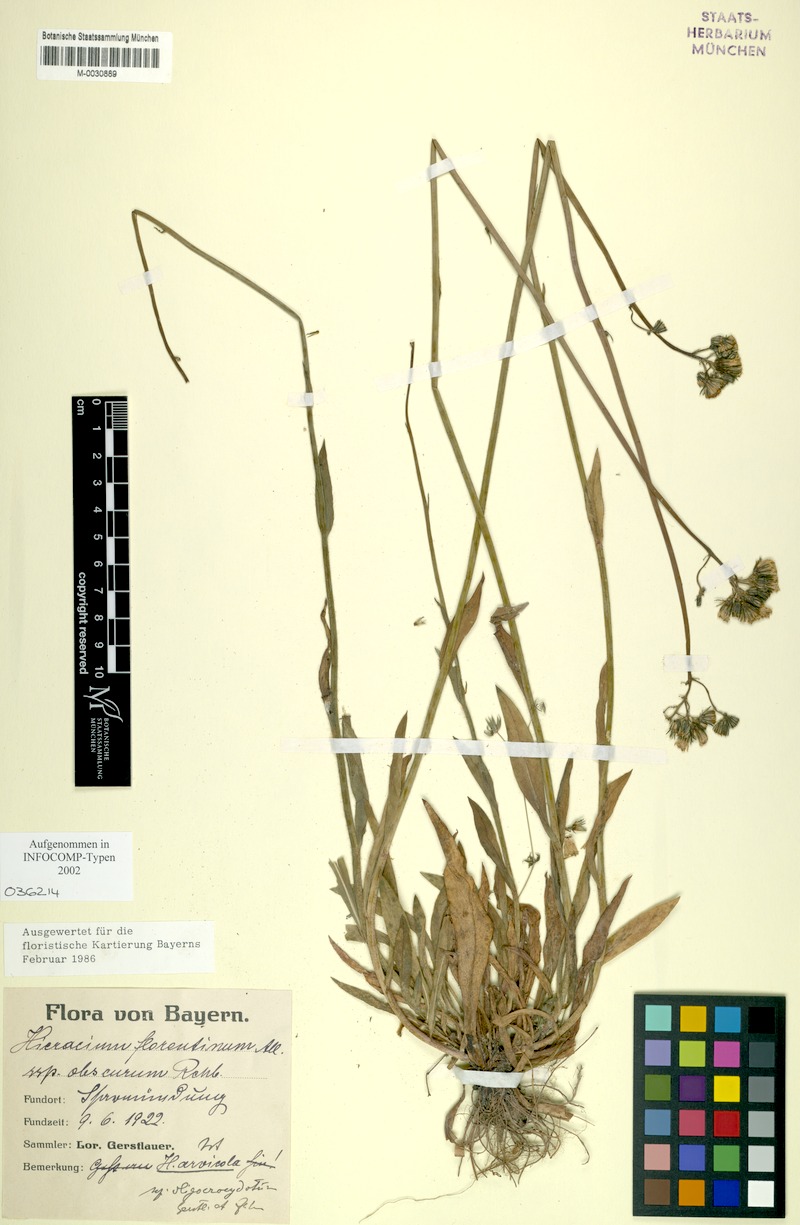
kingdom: Plantae
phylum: Tracheophyta
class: Magnoliopsida
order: Asterales
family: Asteraceae
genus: Pilosella
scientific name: Pilosella erythrochrista
